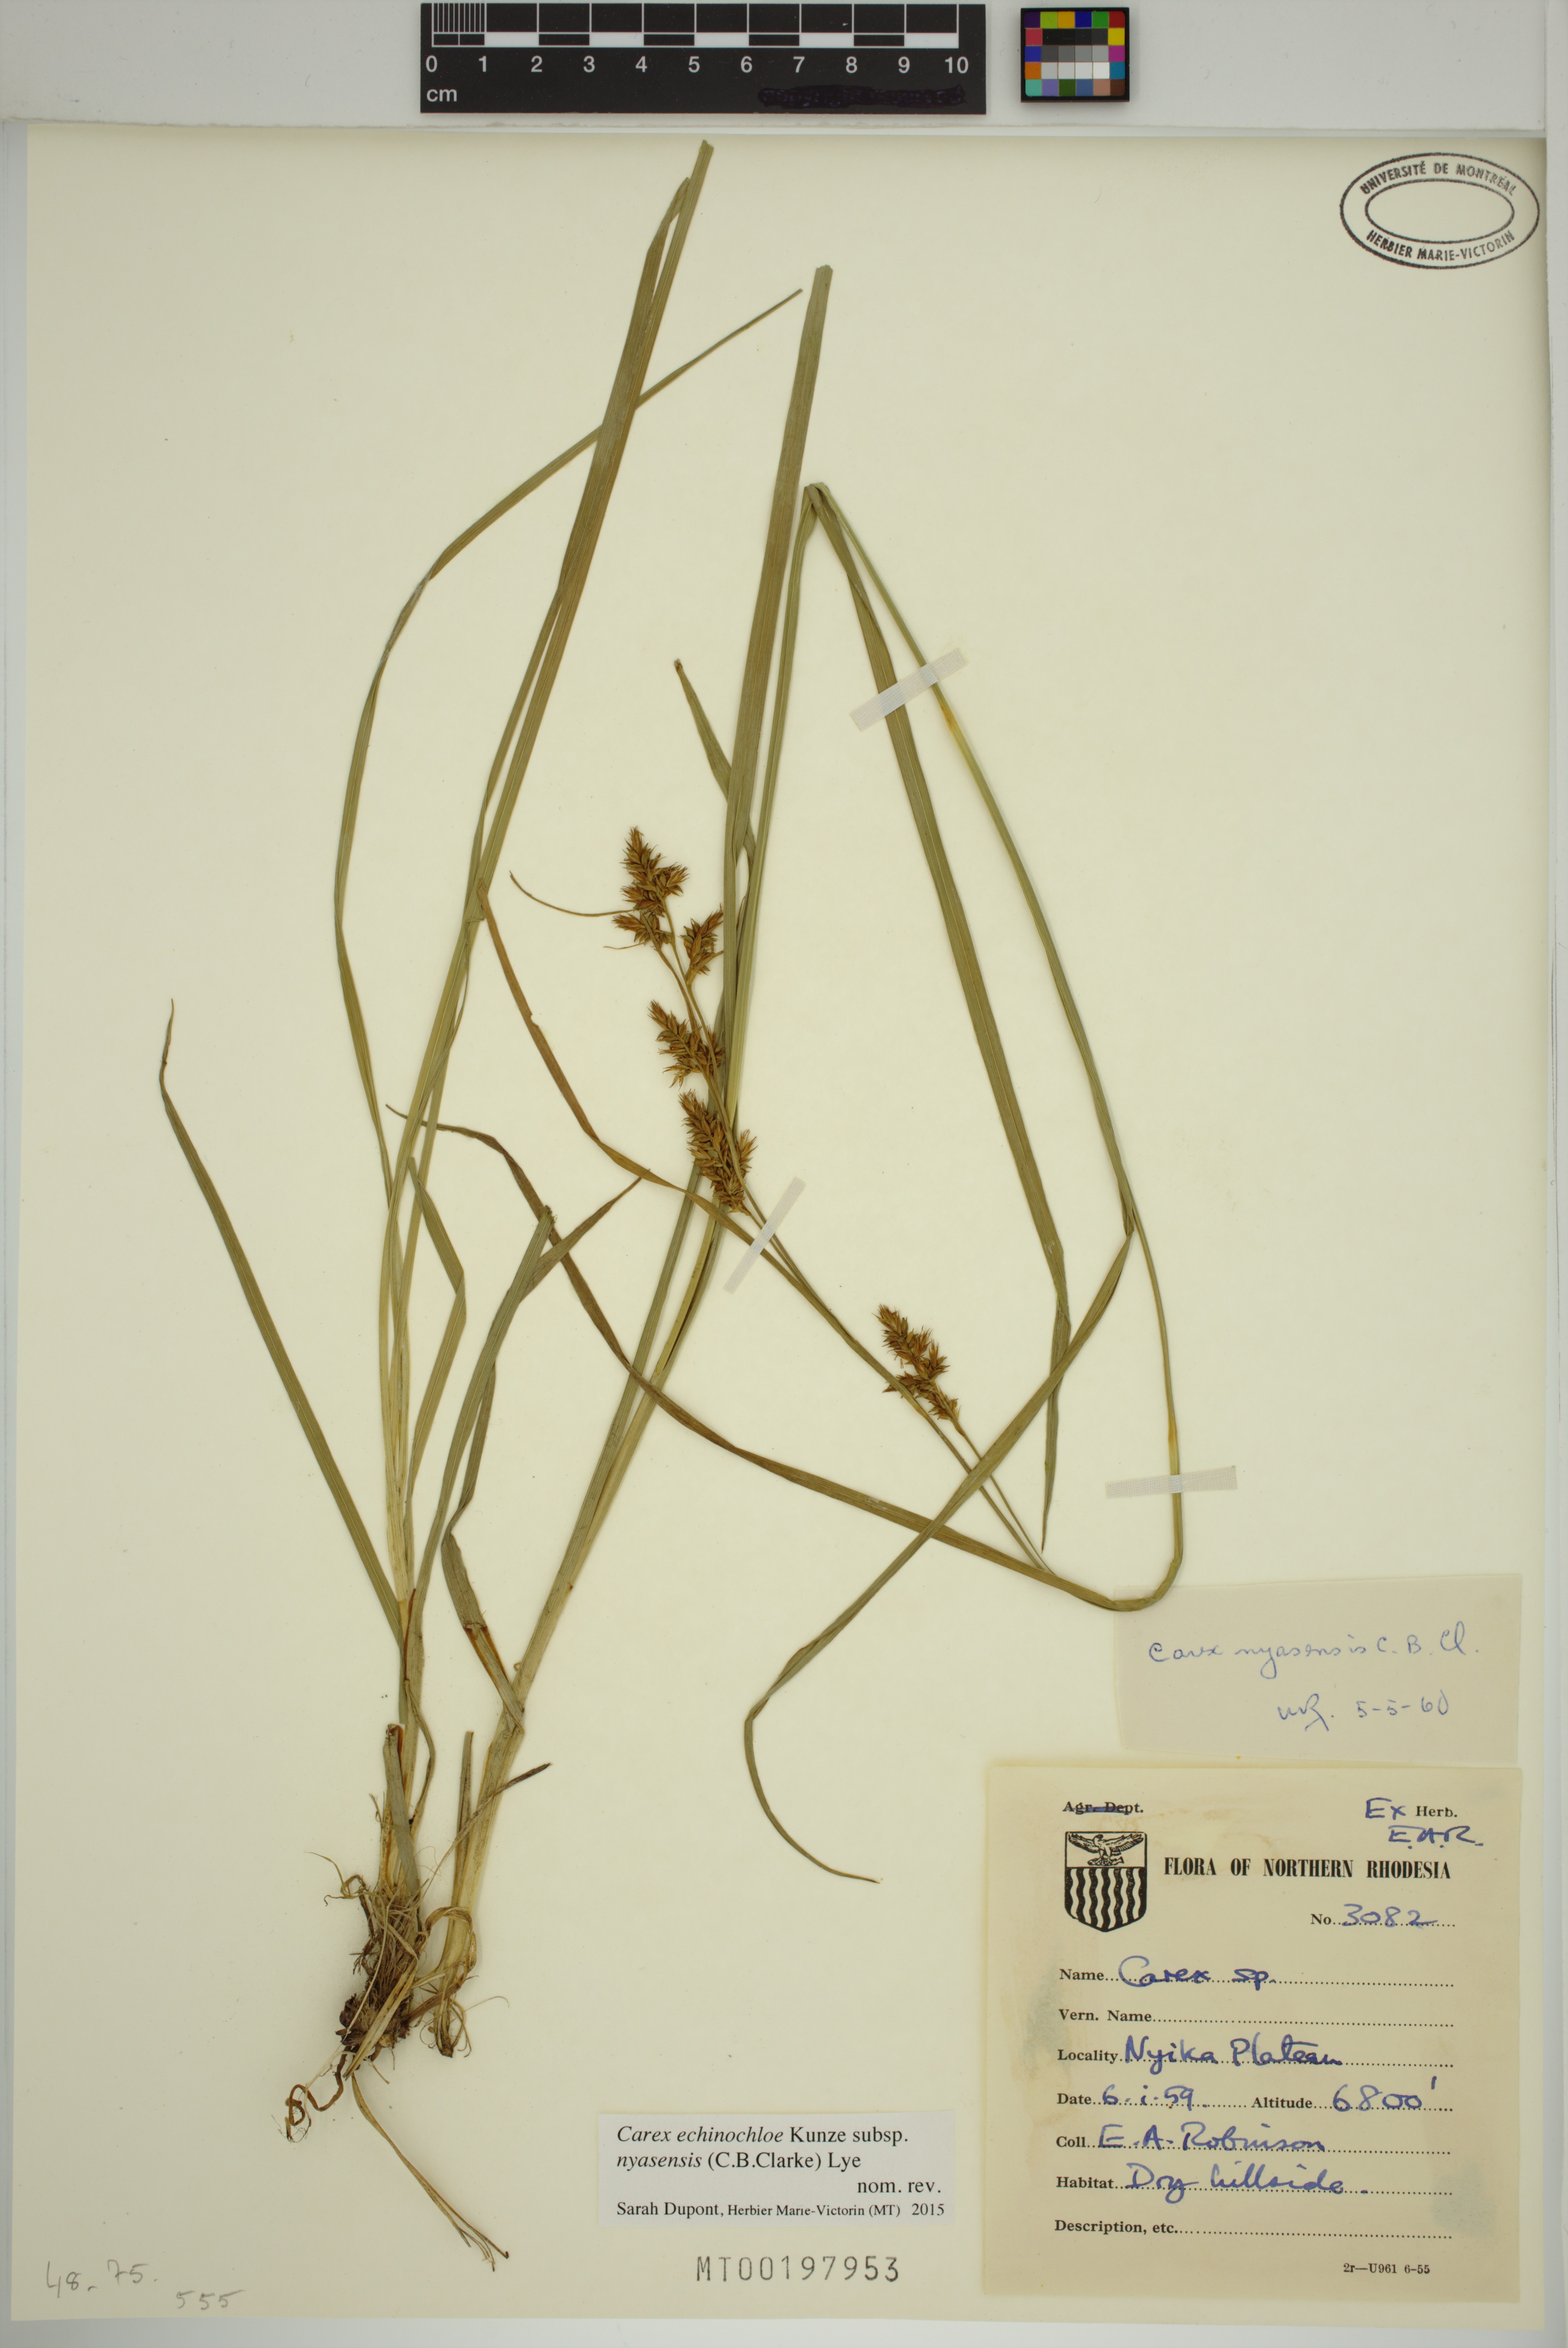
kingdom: Plantae
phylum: Tracheophyta
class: Liliopsida
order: Poales
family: Cyperaceae
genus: Carex
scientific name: Carex spicatopaniculata
